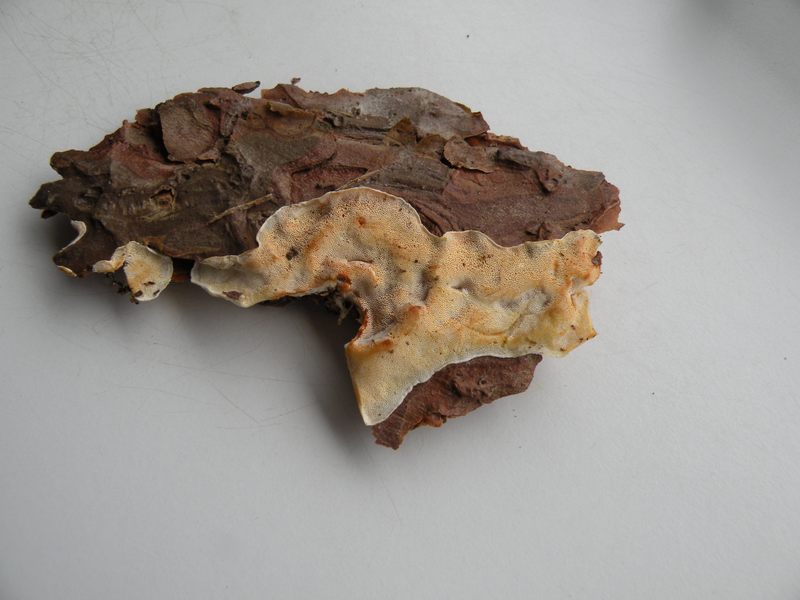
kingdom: Fungi
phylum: Basidiomycota
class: Agaricomycetes
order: Polyporales
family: Incrustoporiaceae
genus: Skeletocutis
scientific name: Skeletocutis amorpha
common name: orange krystalporesvamp
